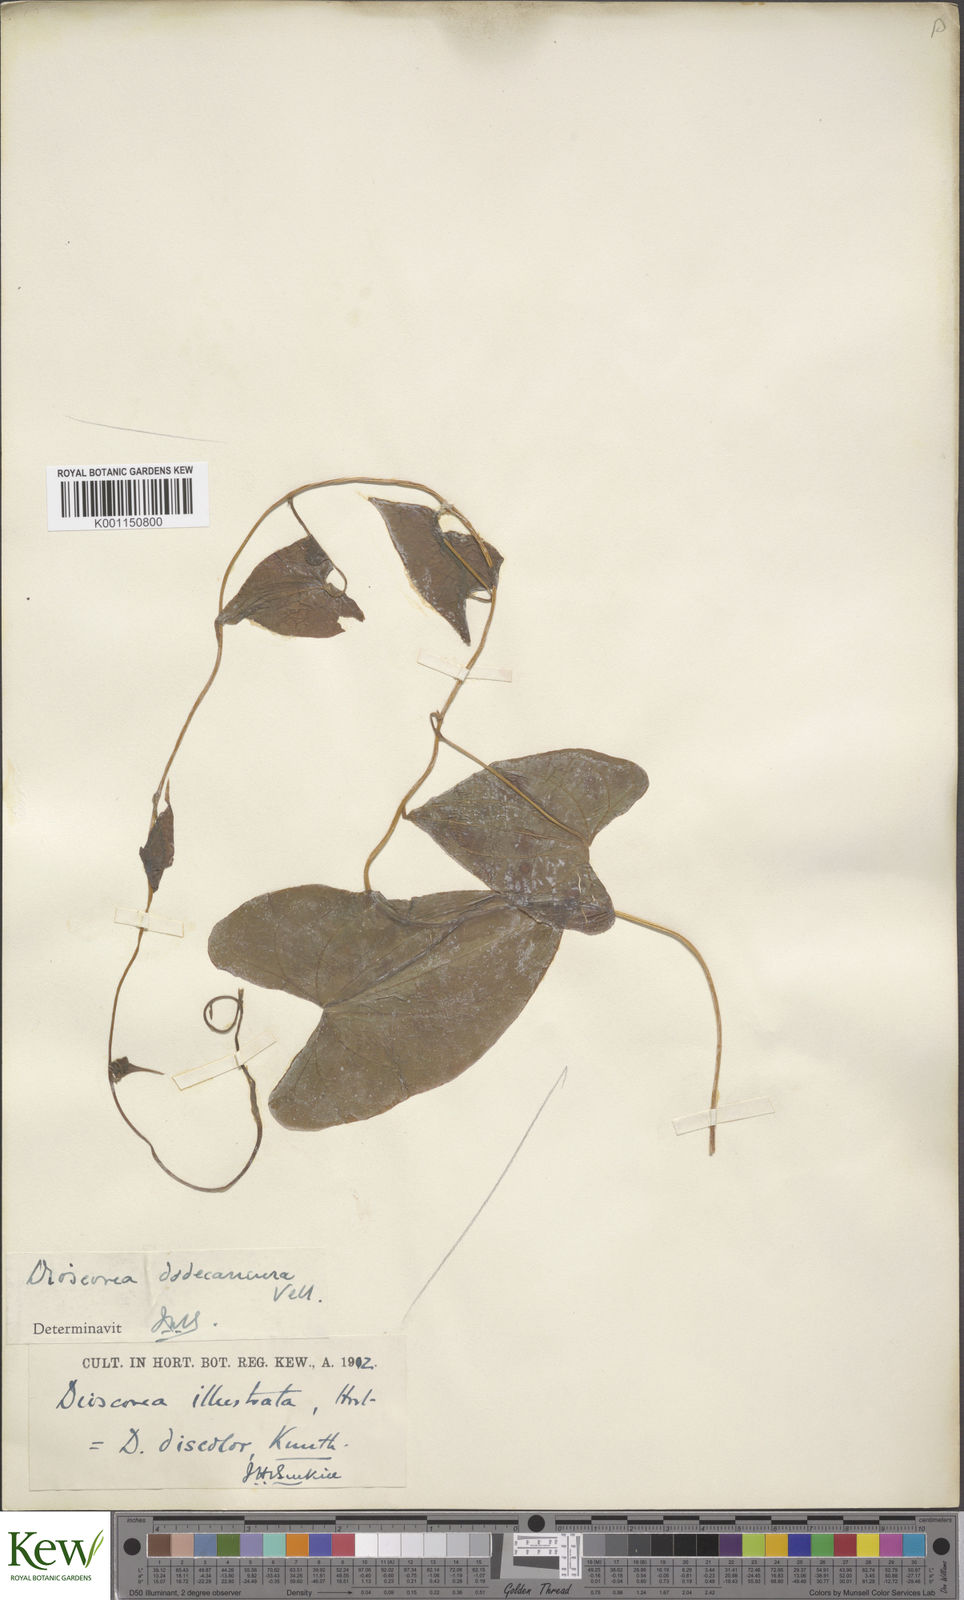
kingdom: Plantae
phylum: Tracheophyta
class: Liliopsida
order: Dioscoreales
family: Dioscoreaceae
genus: Dioscorea
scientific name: Dioscorea dodecaneura
